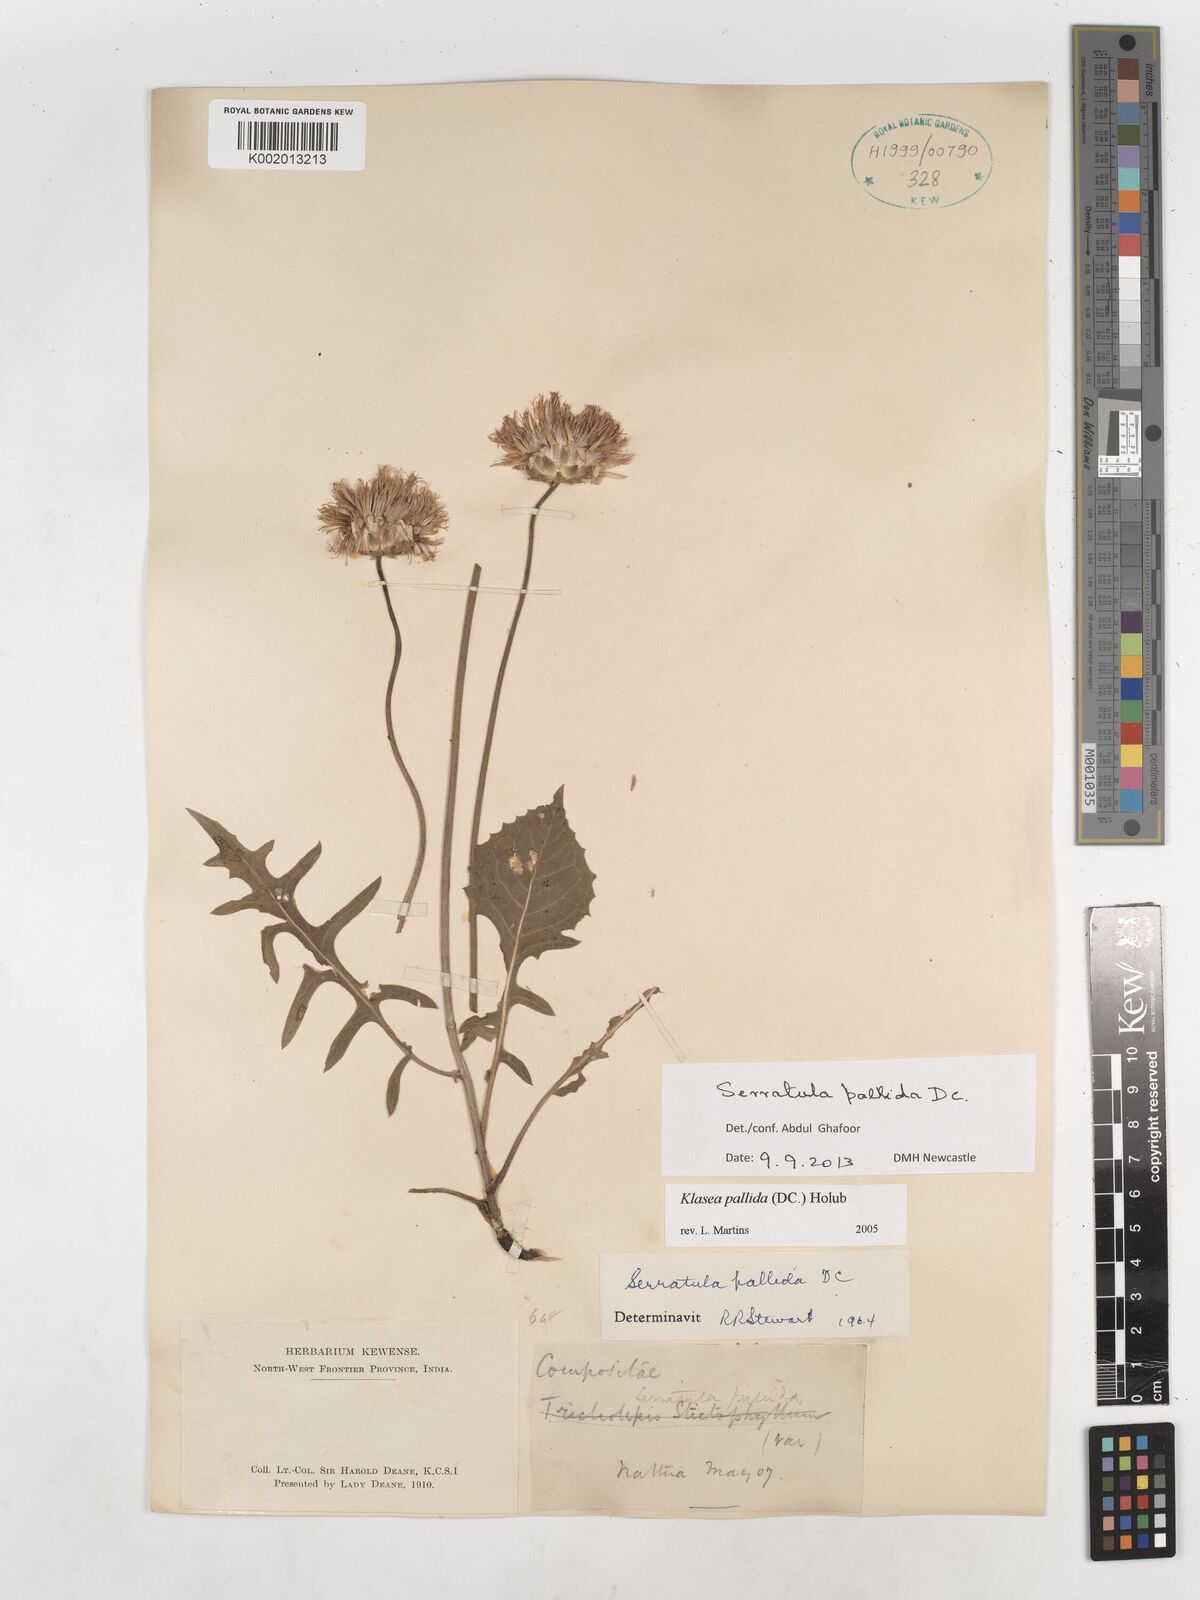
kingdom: Plantae
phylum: Tracheophyta
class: Magnoliopsida
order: Asterales
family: Asteraceae
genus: Klasea
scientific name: Klasea pallida
